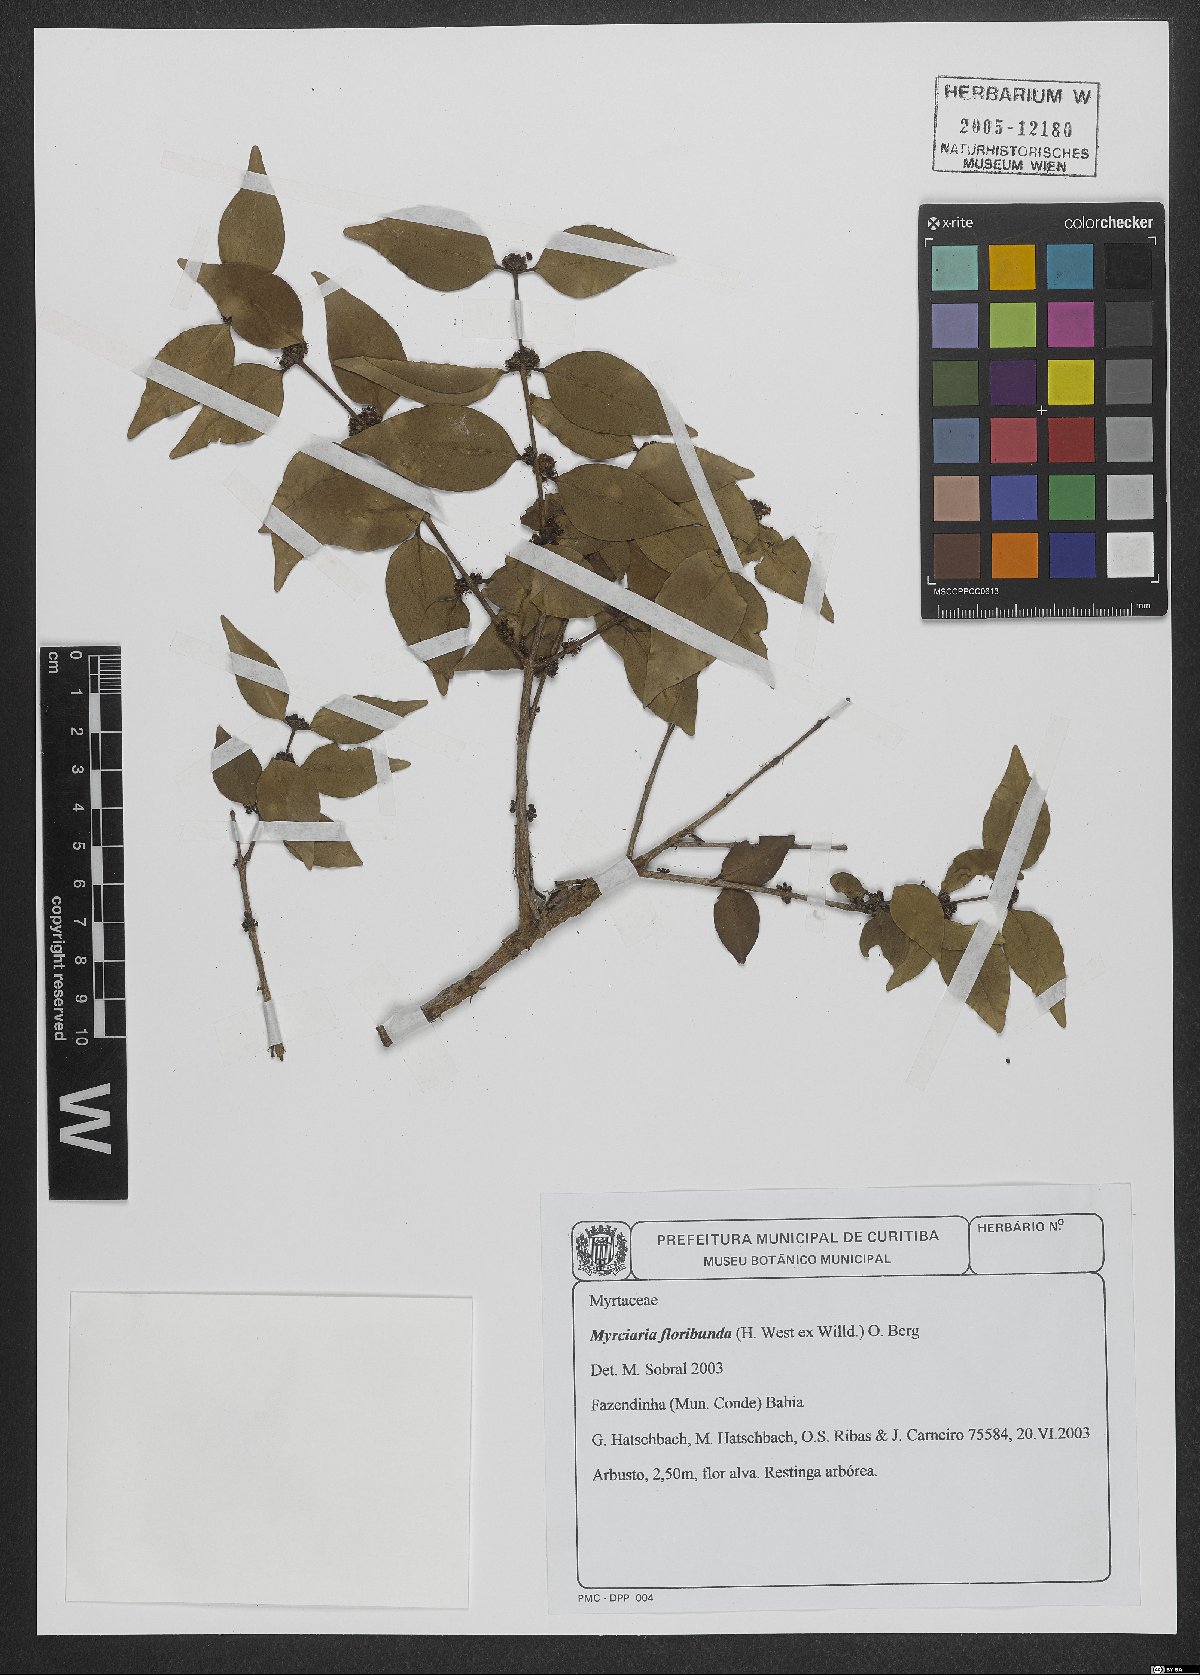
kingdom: Plantae
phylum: Tracheophyta
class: Magnoliopsida
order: Myrtales
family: Myrtaceae
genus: Myrciaria
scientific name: Myrciaria floribunda
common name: Guavaberry
